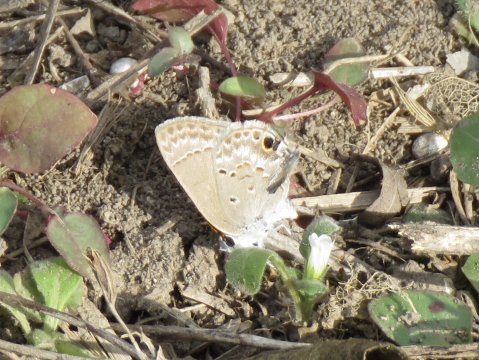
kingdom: Animalia
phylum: Arthropoda
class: Insecta
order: Lepidoptera
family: Lycaenidae
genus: Callicista
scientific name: Callicista columella
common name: Mallow Scrub-Hairstreak
